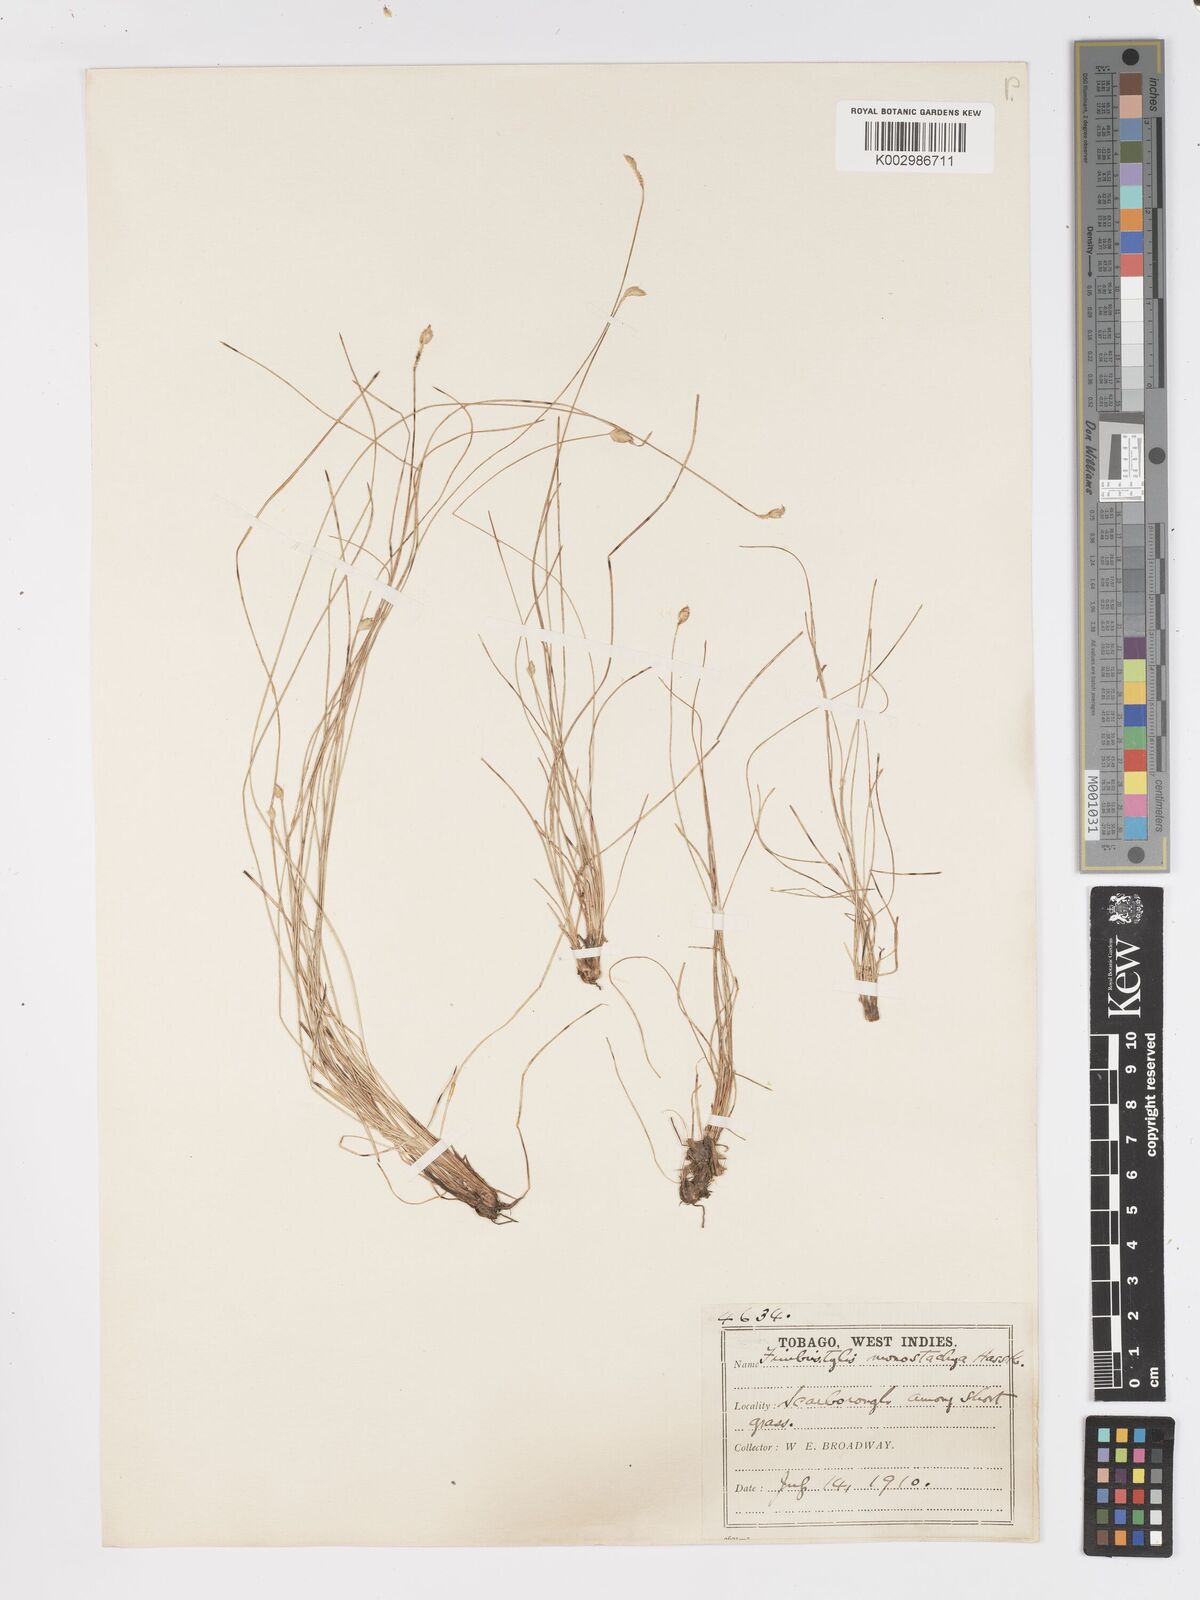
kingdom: Plantae
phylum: Tracheophyta
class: Liliopsida
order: Poales
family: Cyperaceae
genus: Fimbristylis
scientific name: Fimbristylis
